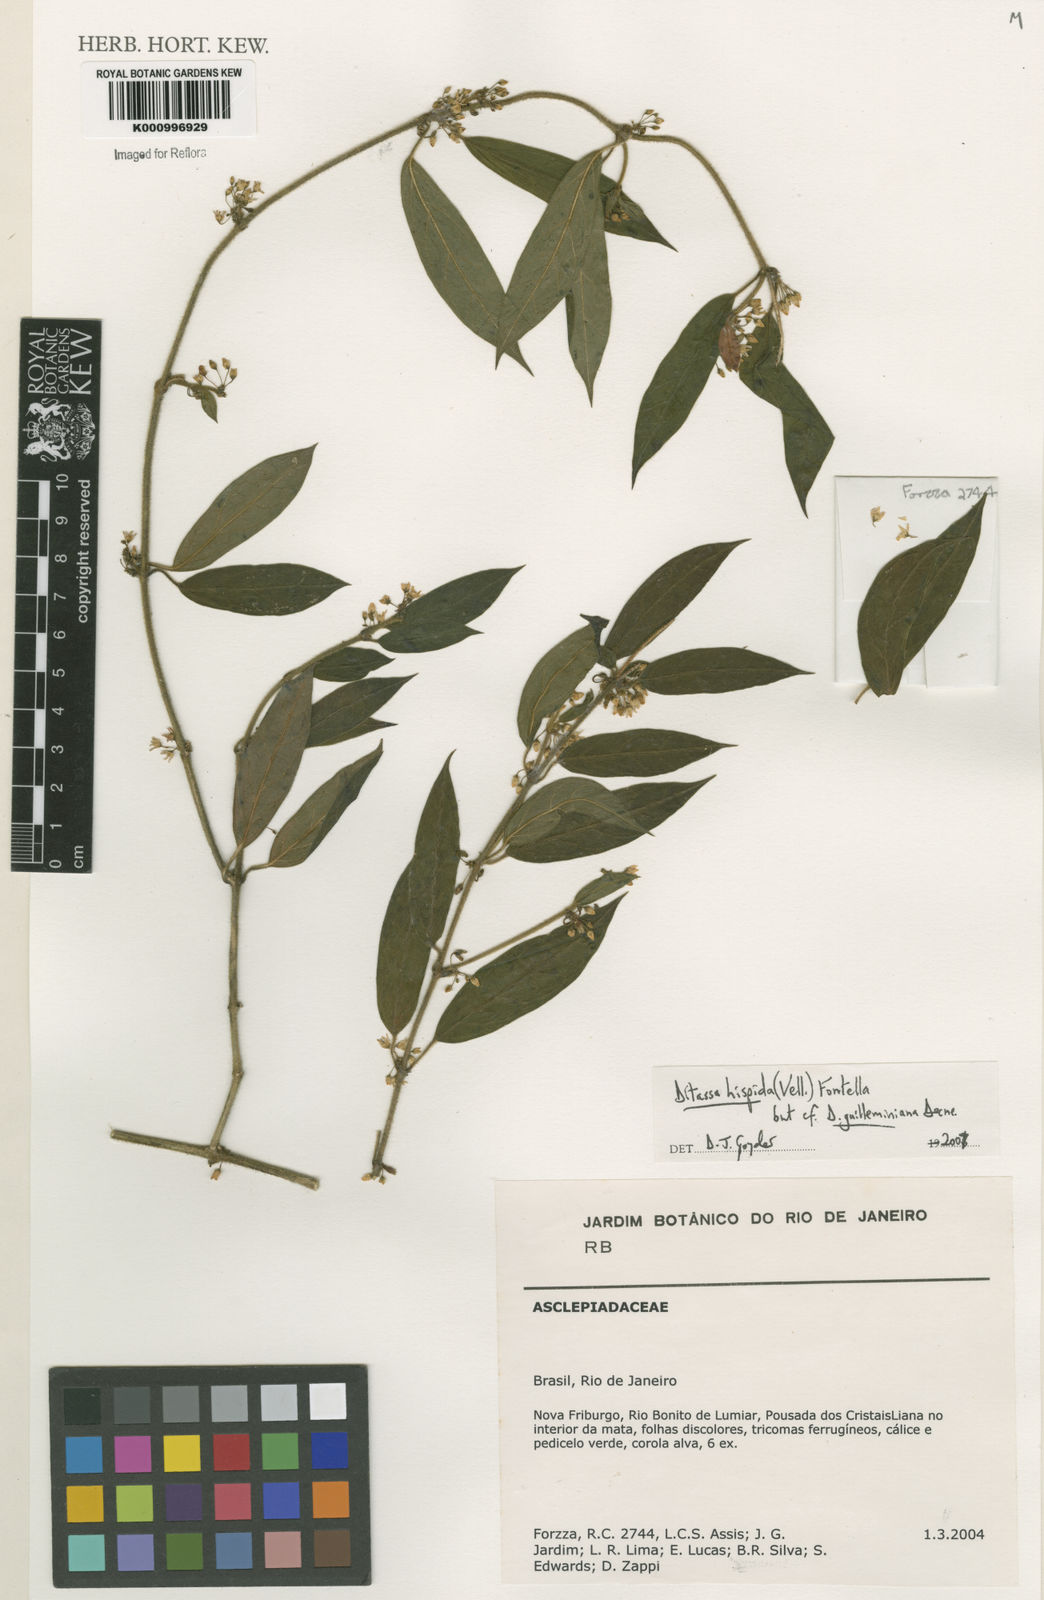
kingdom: Plantae
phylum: Tracheophyta
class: Magnoliopsida
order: Gentianales
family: Apocynaceae
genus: Ditassa
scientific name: Ditassa hispida
